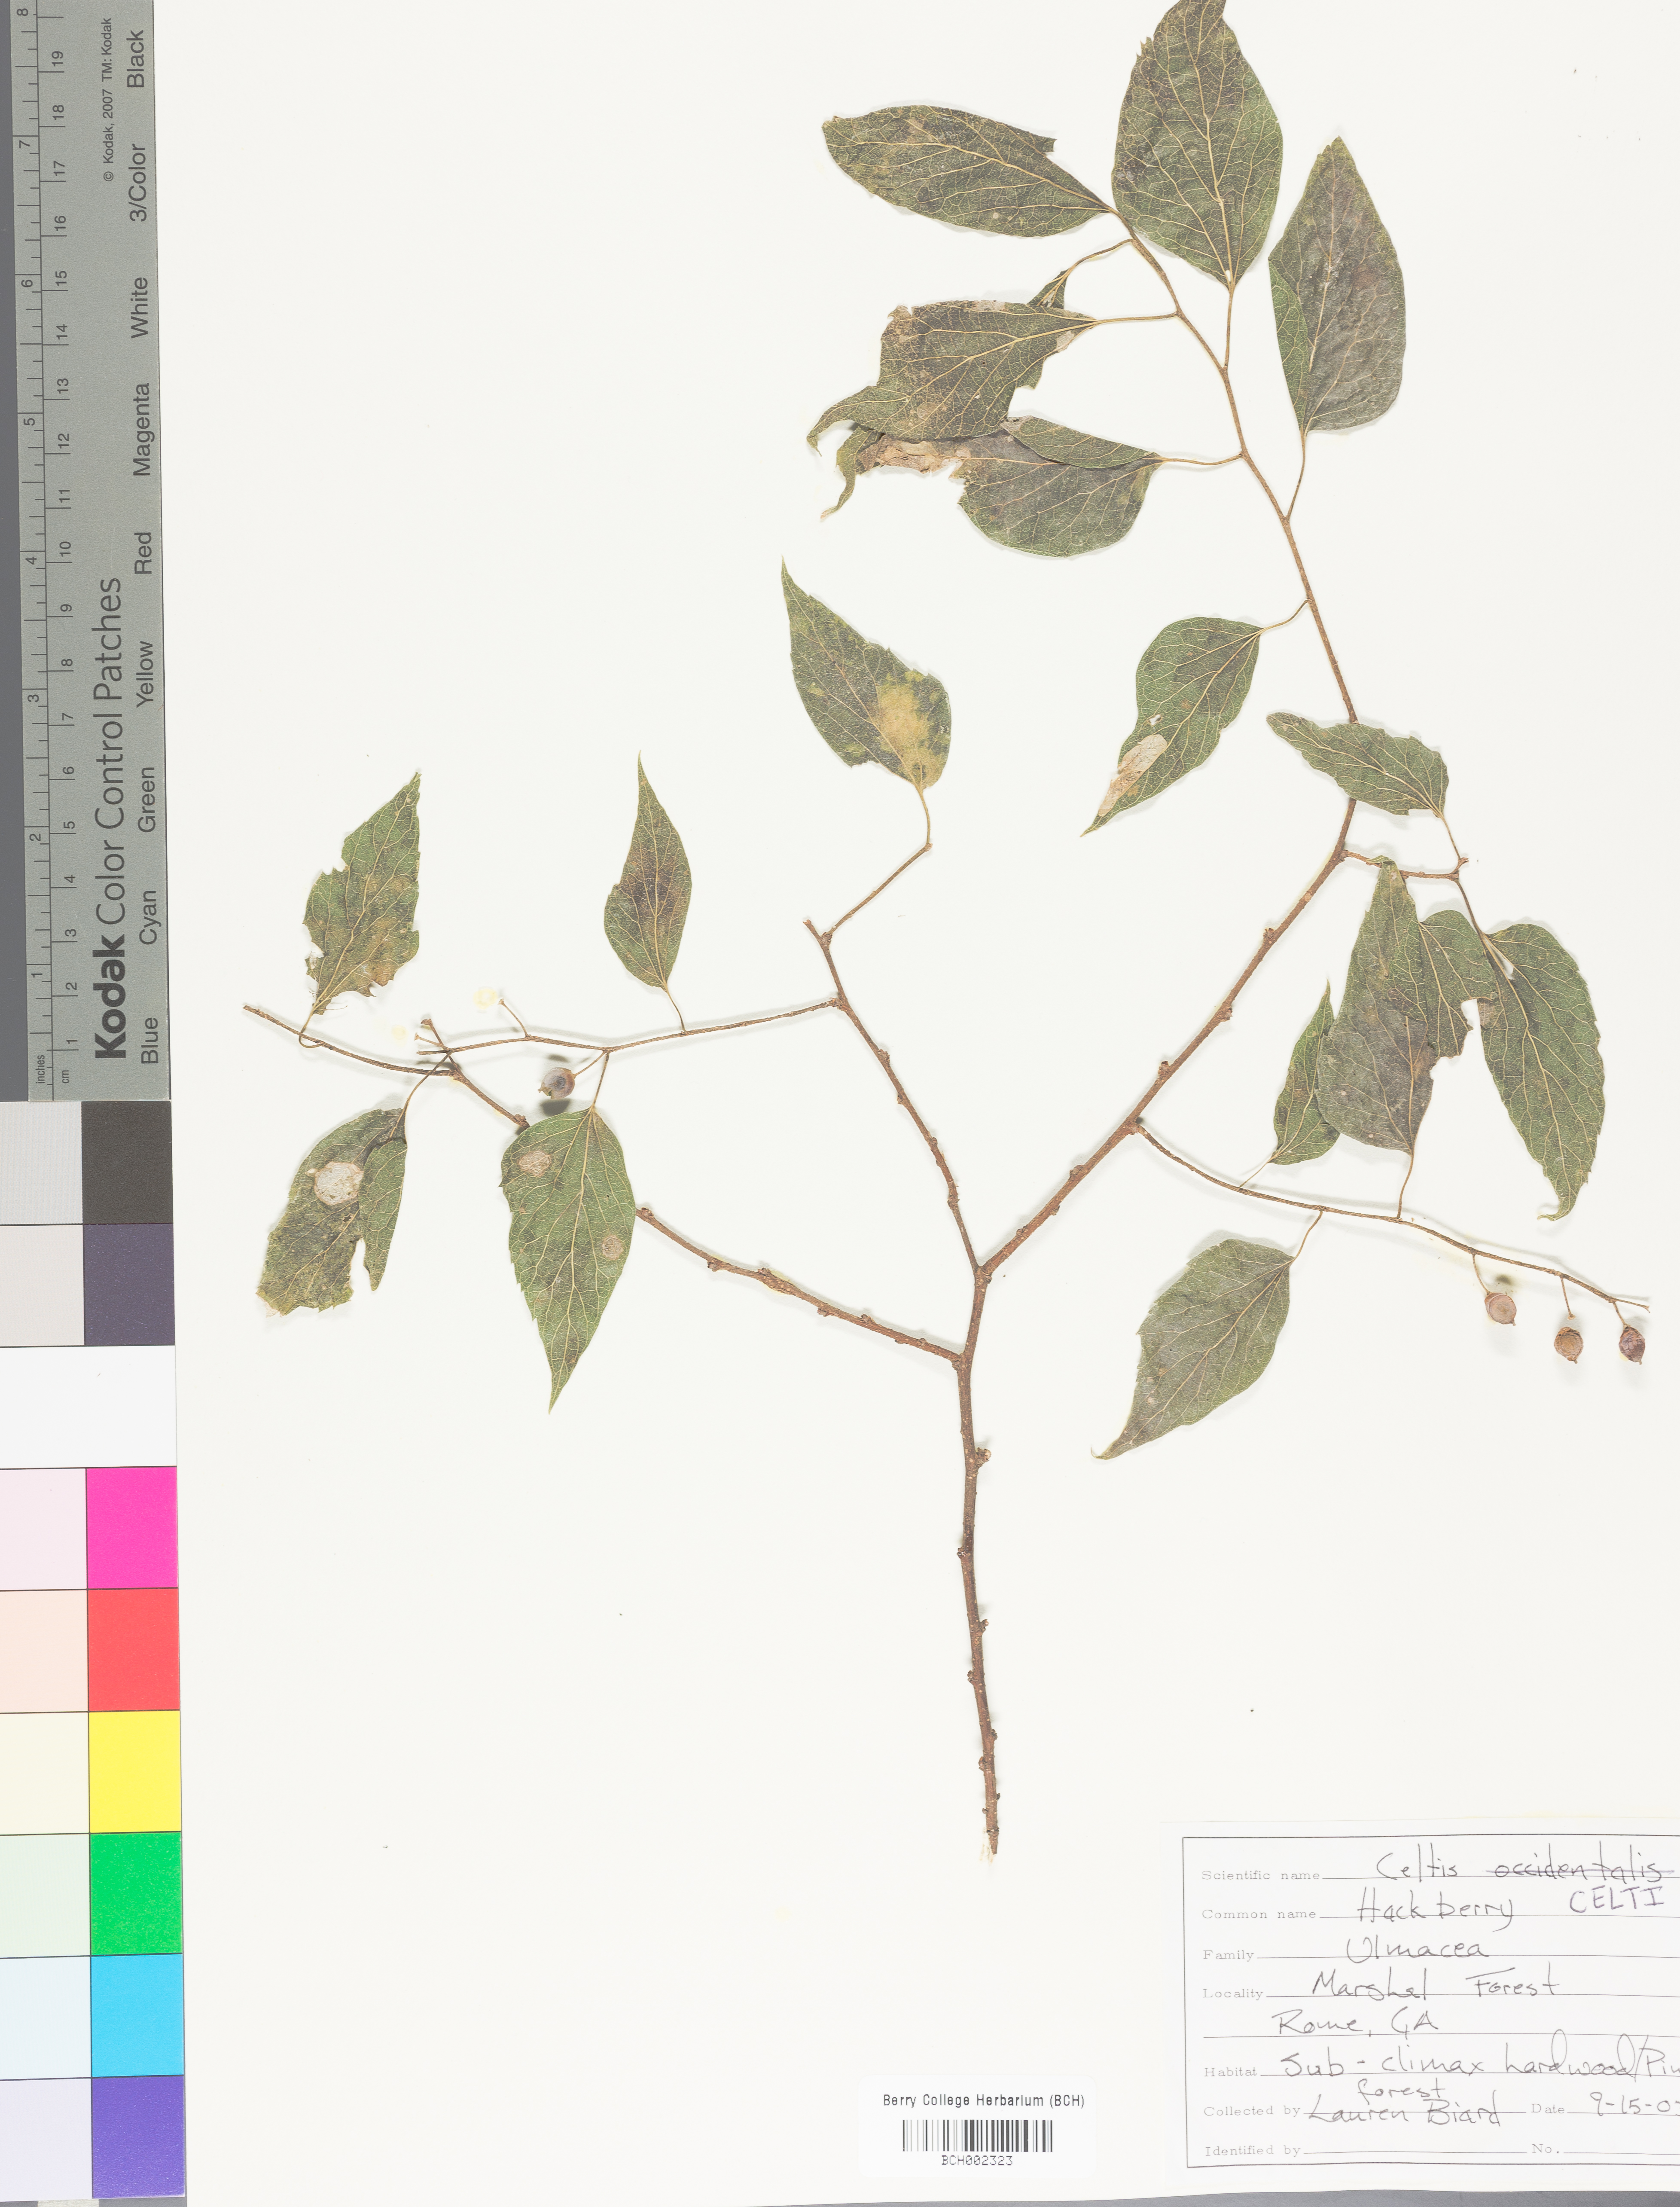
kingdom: Plantae
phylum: Tracheophyta
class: Magnoliopsida
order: Rosales
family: Cannabaceae
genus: Celtis
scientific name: Celtis
